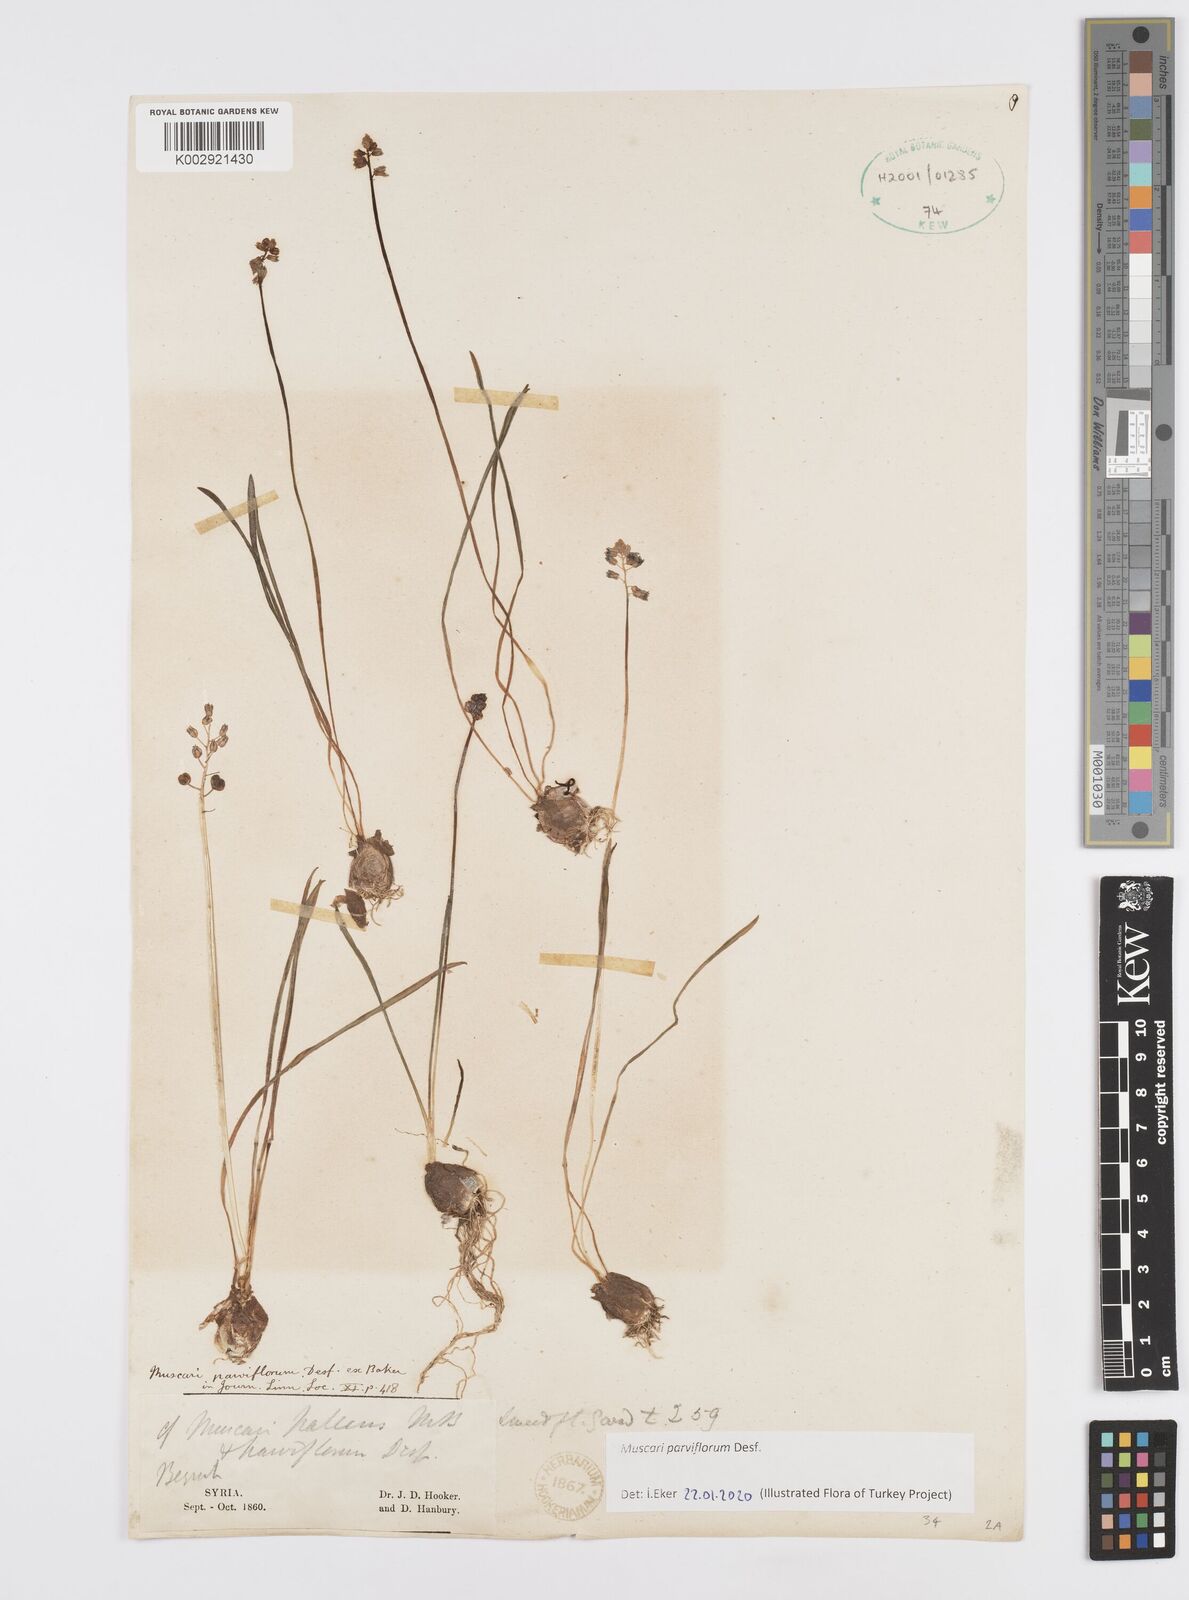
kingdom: Plantae
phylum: Tracheophyta
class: Liliopsida
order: Asparagales
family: Asparagaceae
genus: Muscari
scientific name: Muscari pallens
